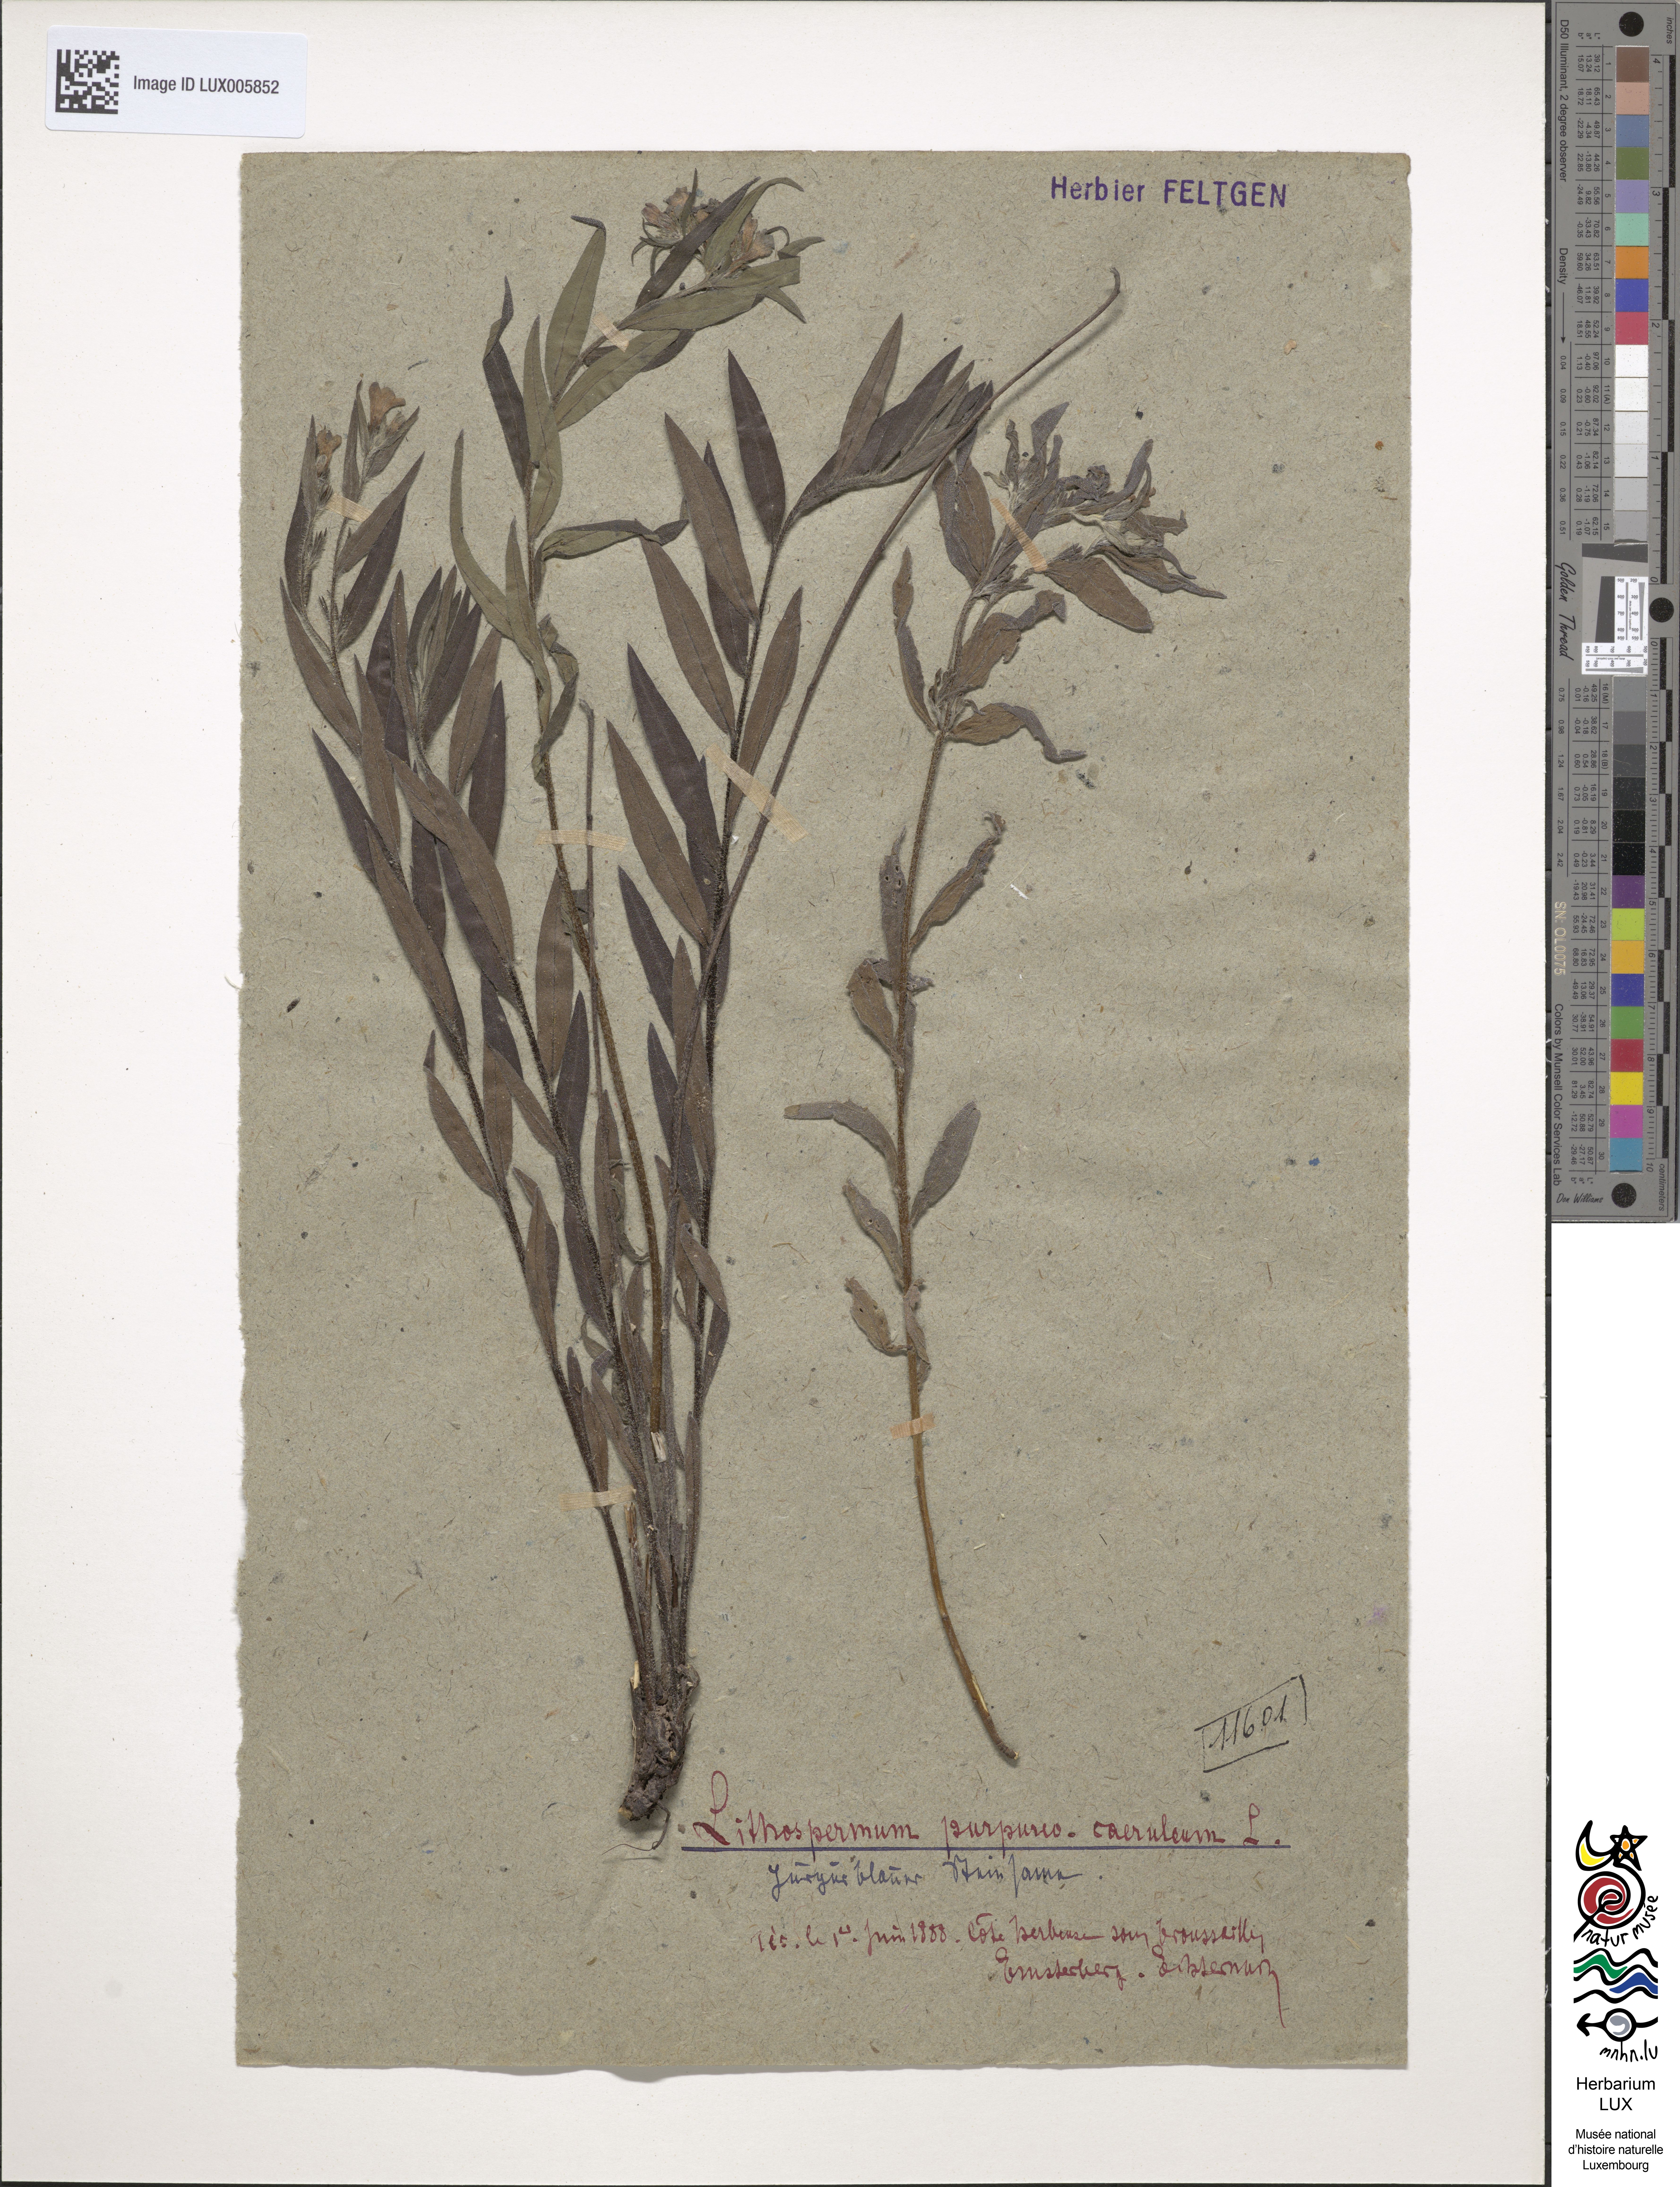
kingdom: Plantae
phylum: Tracheophyta
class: Magnoliopsida
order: Boraginales
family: Boraginaceae
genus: Aegonychon
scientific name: Aegonychon purpurocaeruleum
